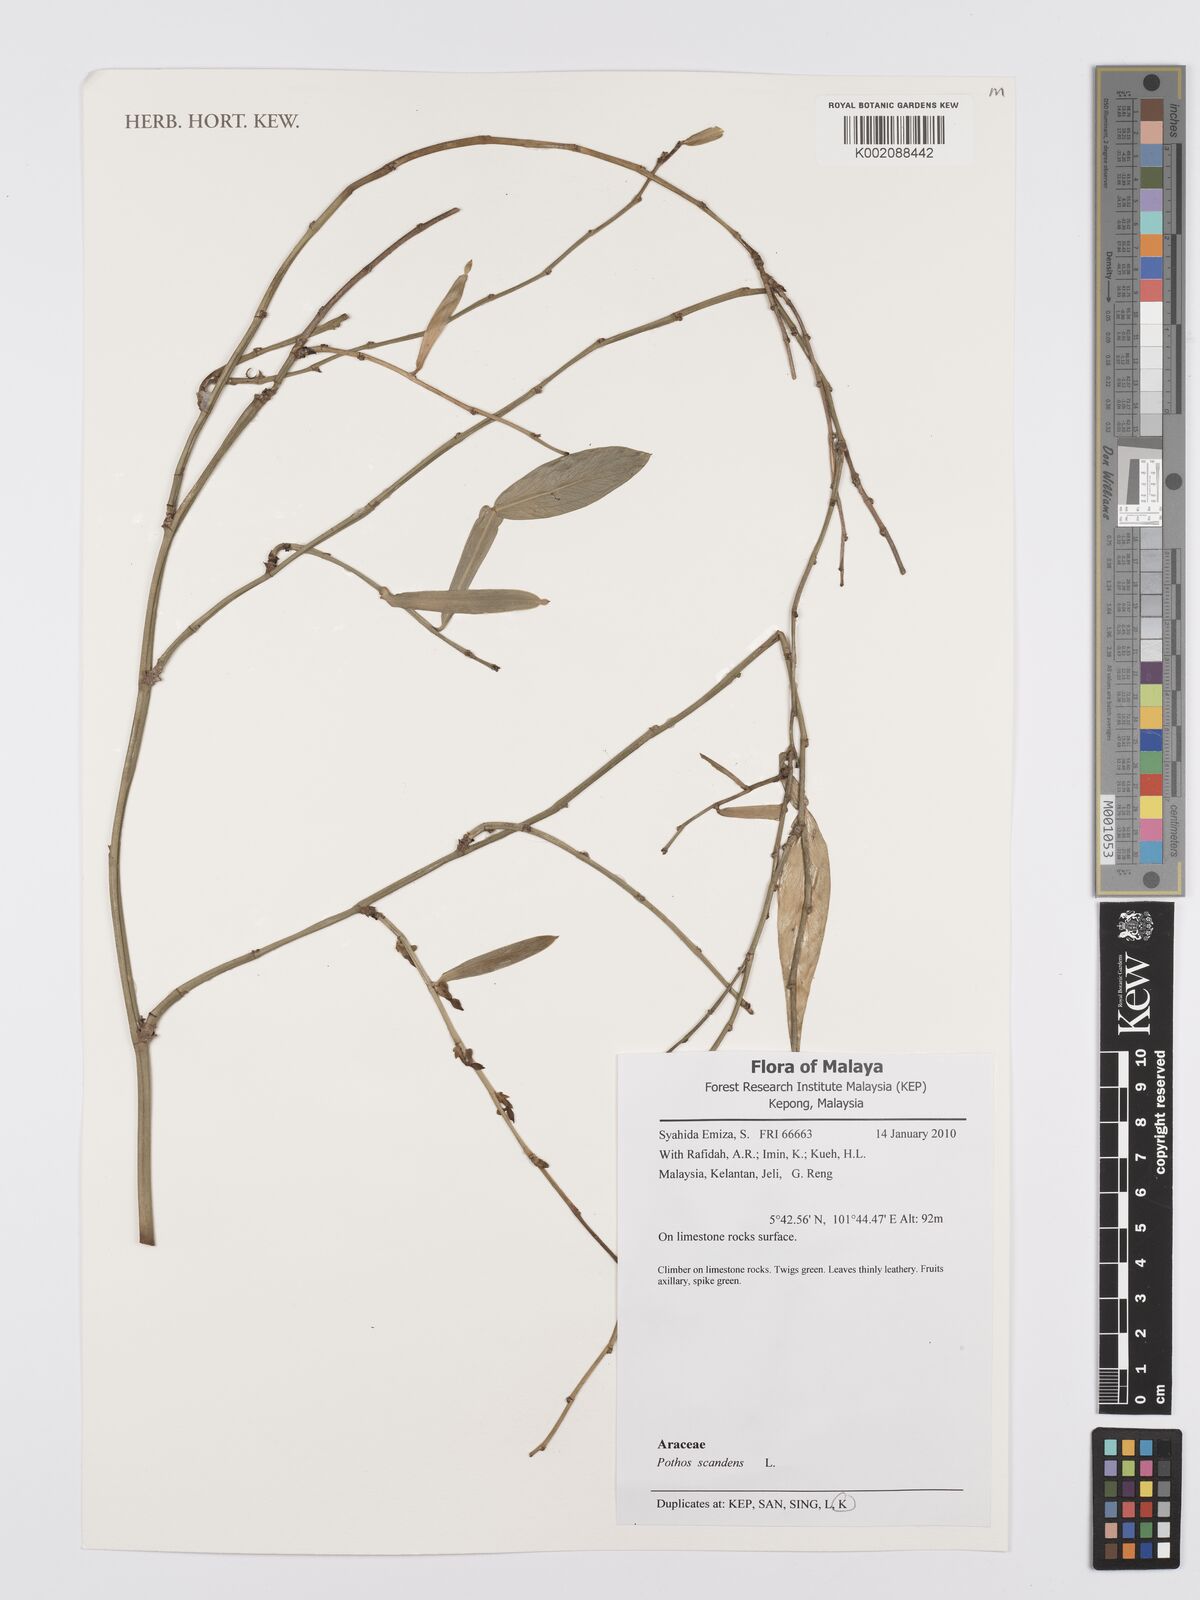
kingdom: Plantae
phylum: Tracheophyta
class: Liliopsida
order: Alismatales
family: Araceae
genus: Pothos
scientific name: Pothos scandens
